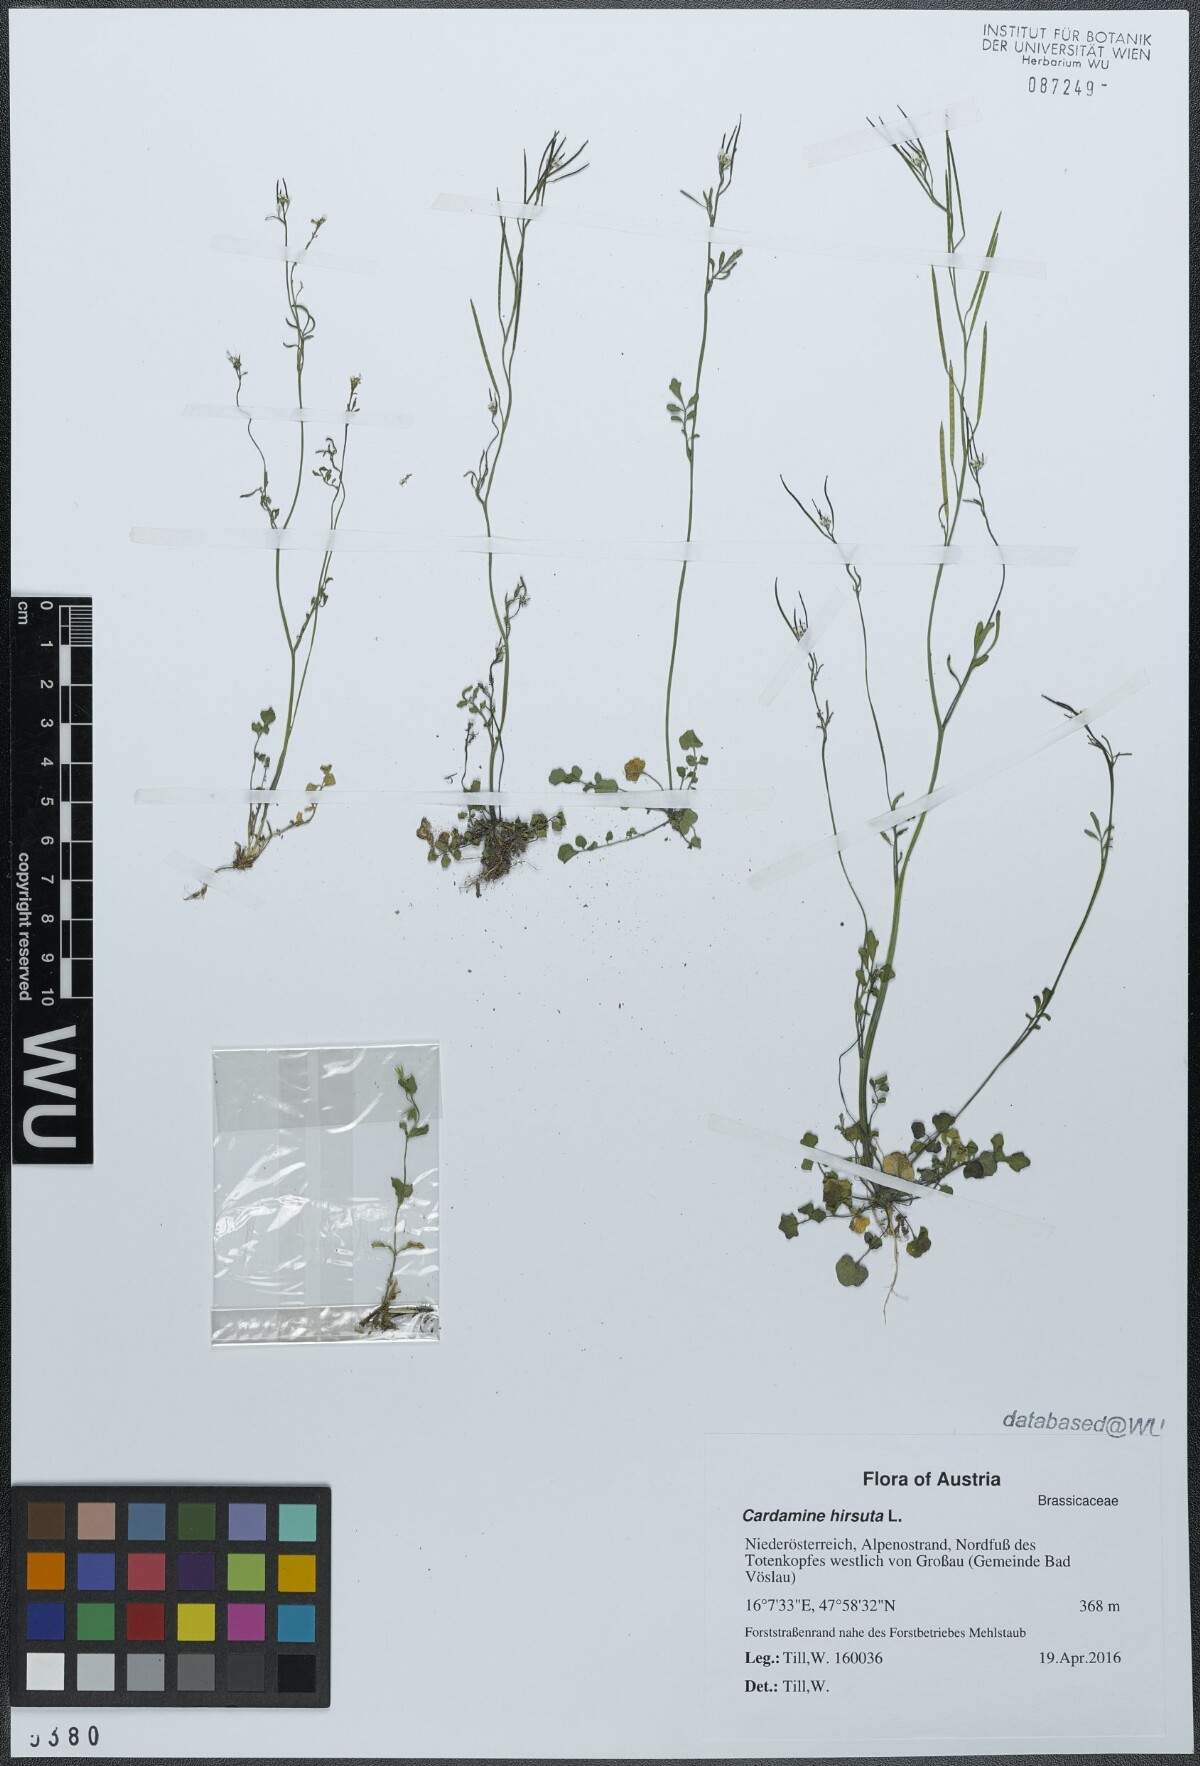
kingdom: Plantae
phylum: Tracheophyta
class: Magnoliopsida
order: Brassicales
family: Brassicaceae
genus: Cardamine
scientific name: Cardamine hirsuta
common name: Hairy bittercress
